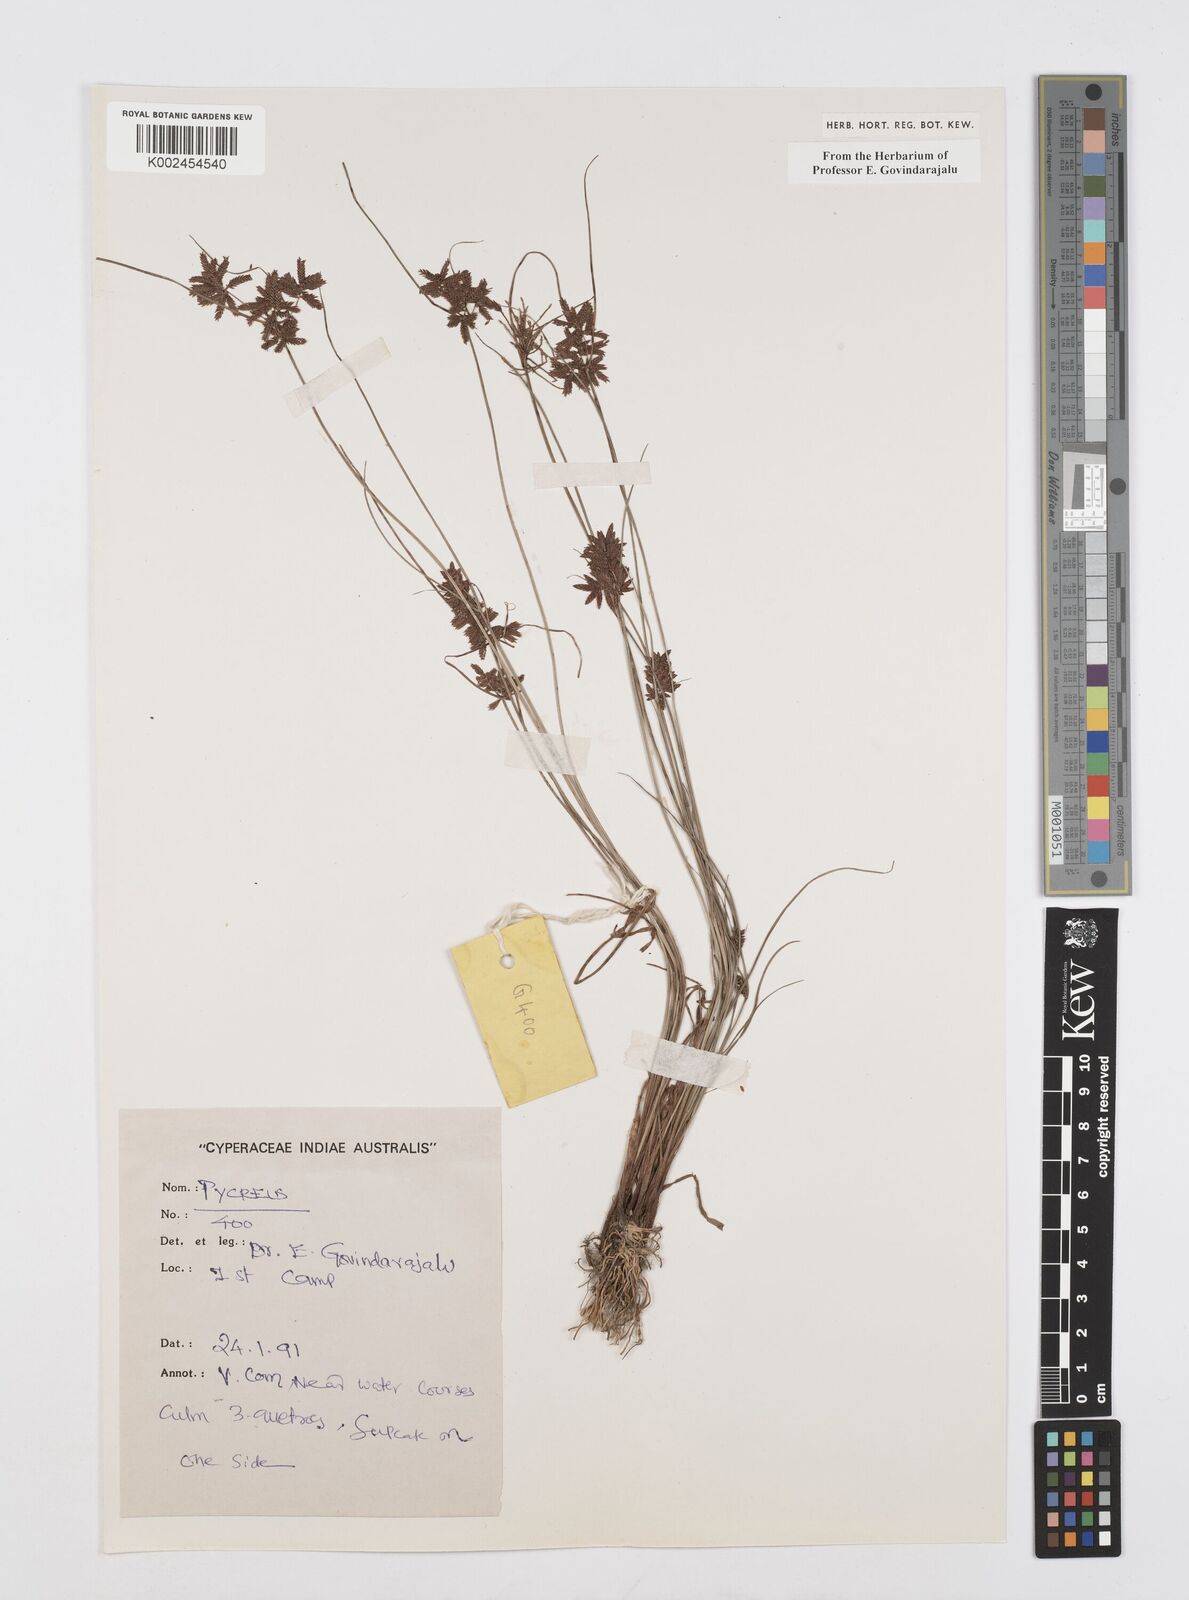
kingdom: Plantae
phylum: Tracheophyta
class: Liliopsida
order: Poales
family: Cyperaceae
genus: Cyperus
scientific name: Cyperus
